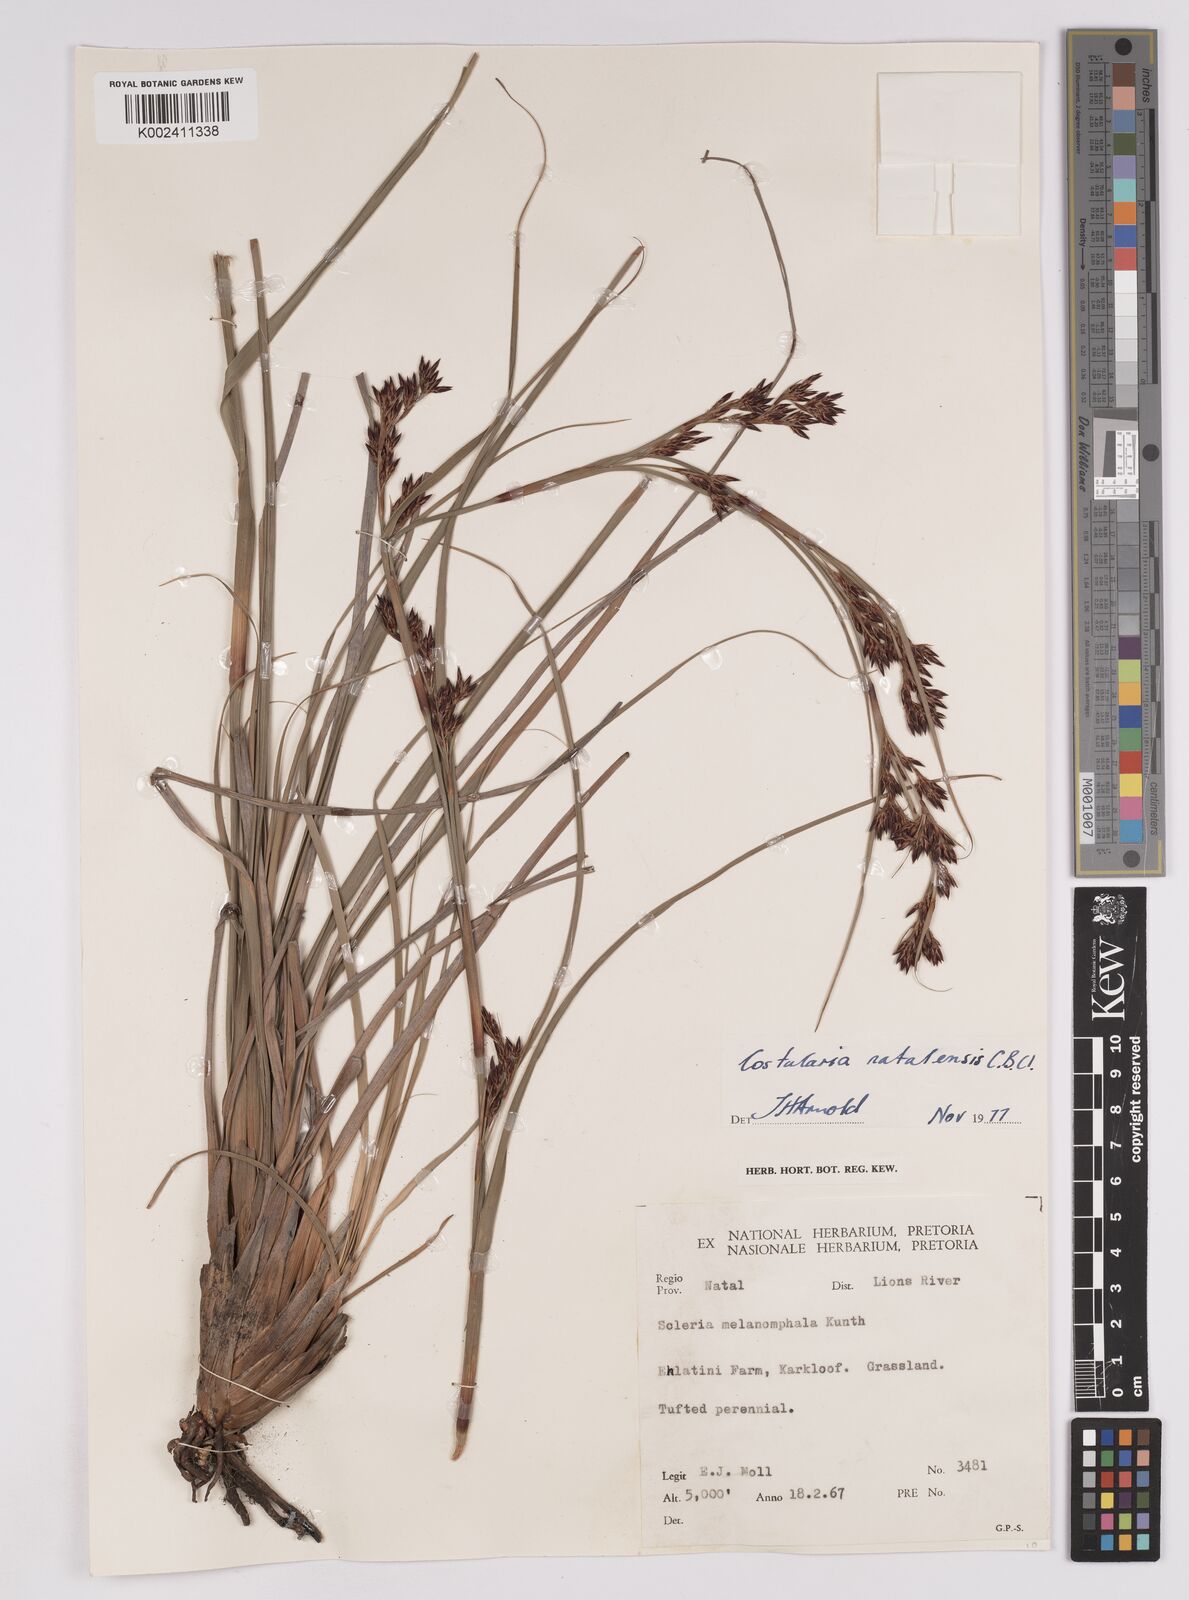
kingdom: Plantae
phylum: Tracheophyta
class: Liliopsida
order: Poales
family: Cyperaceae
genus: Costularia
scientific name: Costularia natalensis
